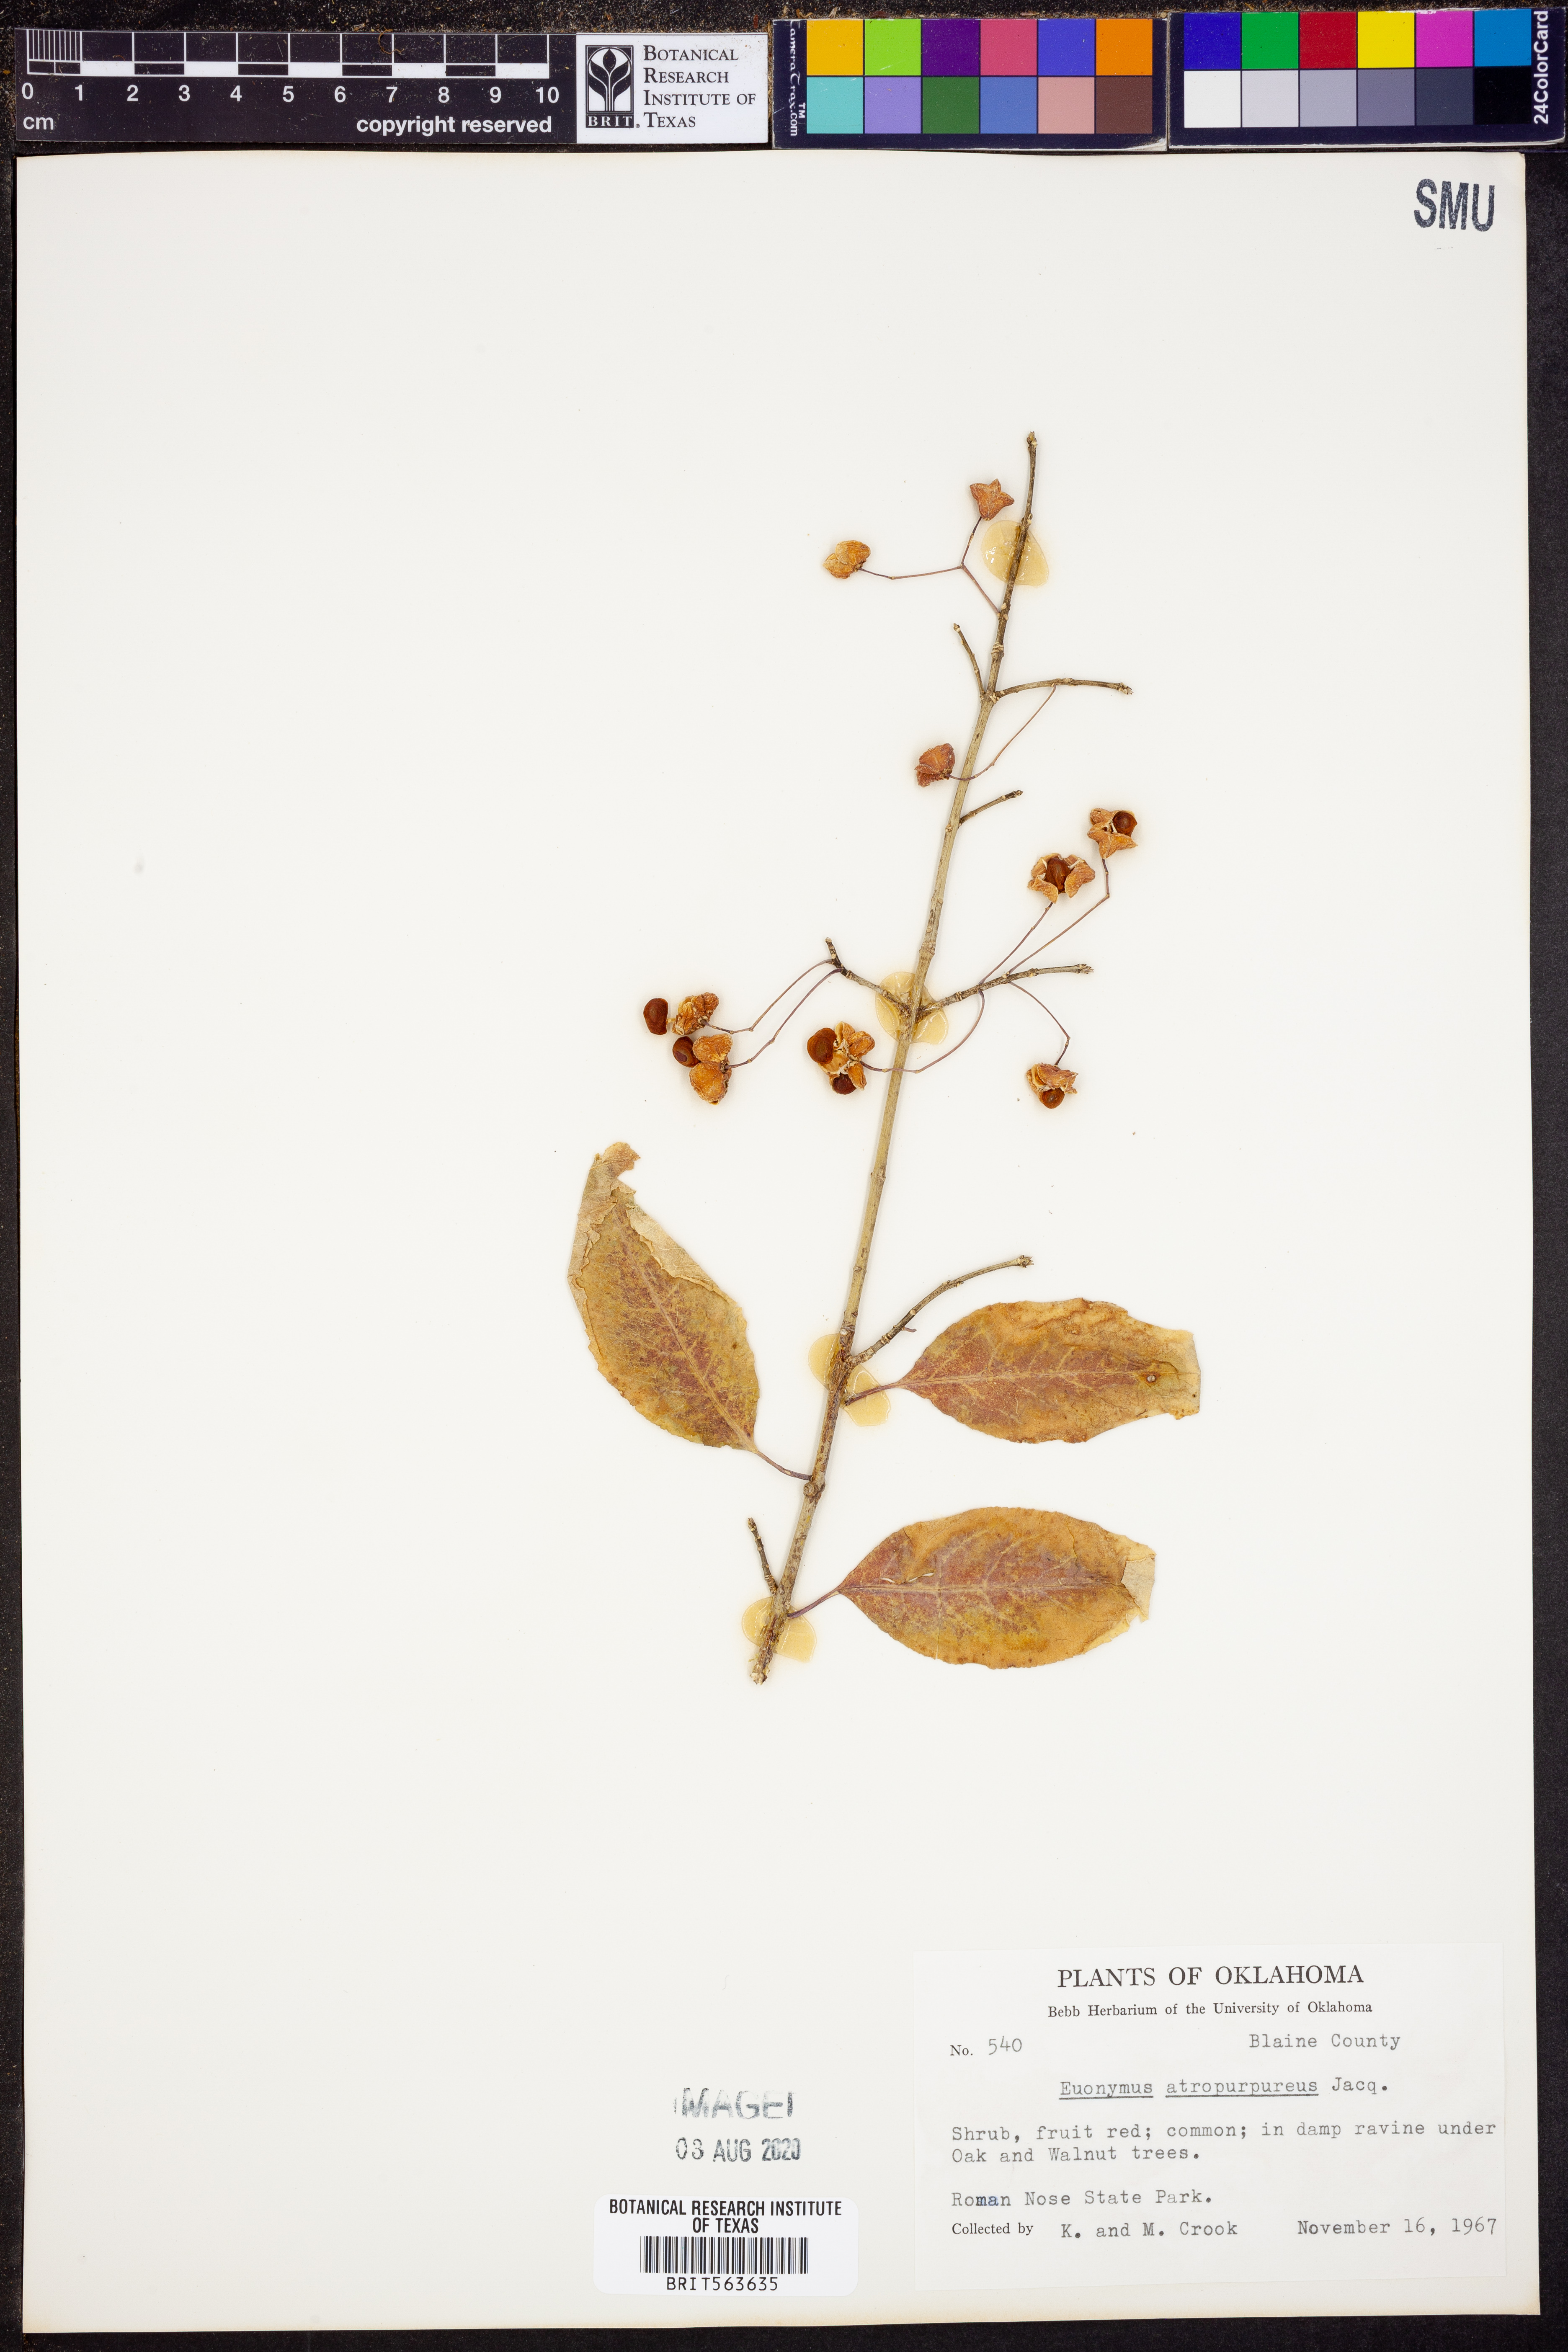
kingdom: Plantae
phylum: Tracheophyta
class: Magnoliopsida
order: Celastrales
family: Celastraceae
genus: Euonymus
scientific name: Euonymus atropurpureus
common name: Eastern wahoo
